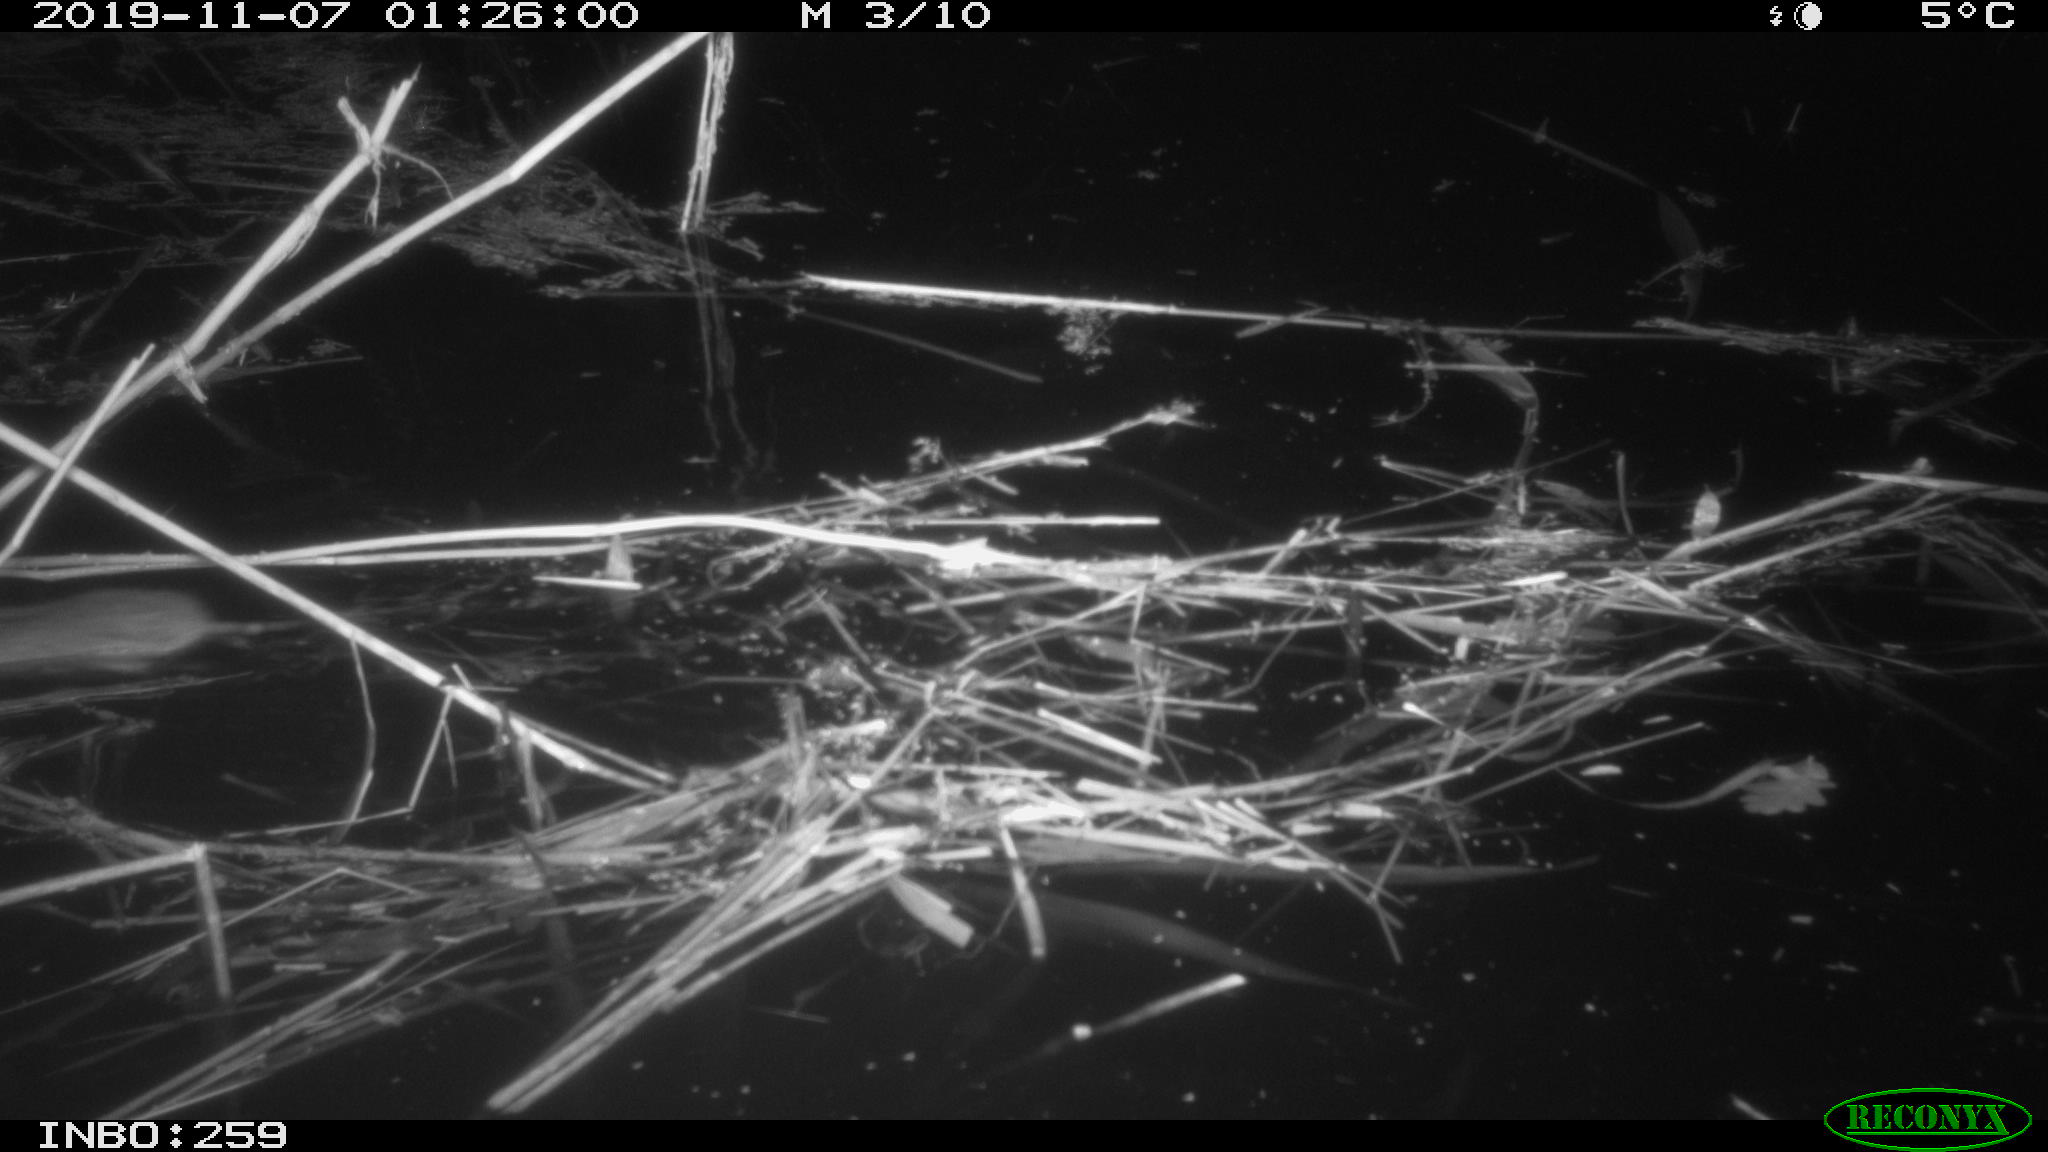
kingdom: Animalia
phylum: Chordata
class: Mammalia
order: Rodentia
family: Muridae
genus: Rattus
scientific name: Rattus norvegicus
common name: Brown rat
